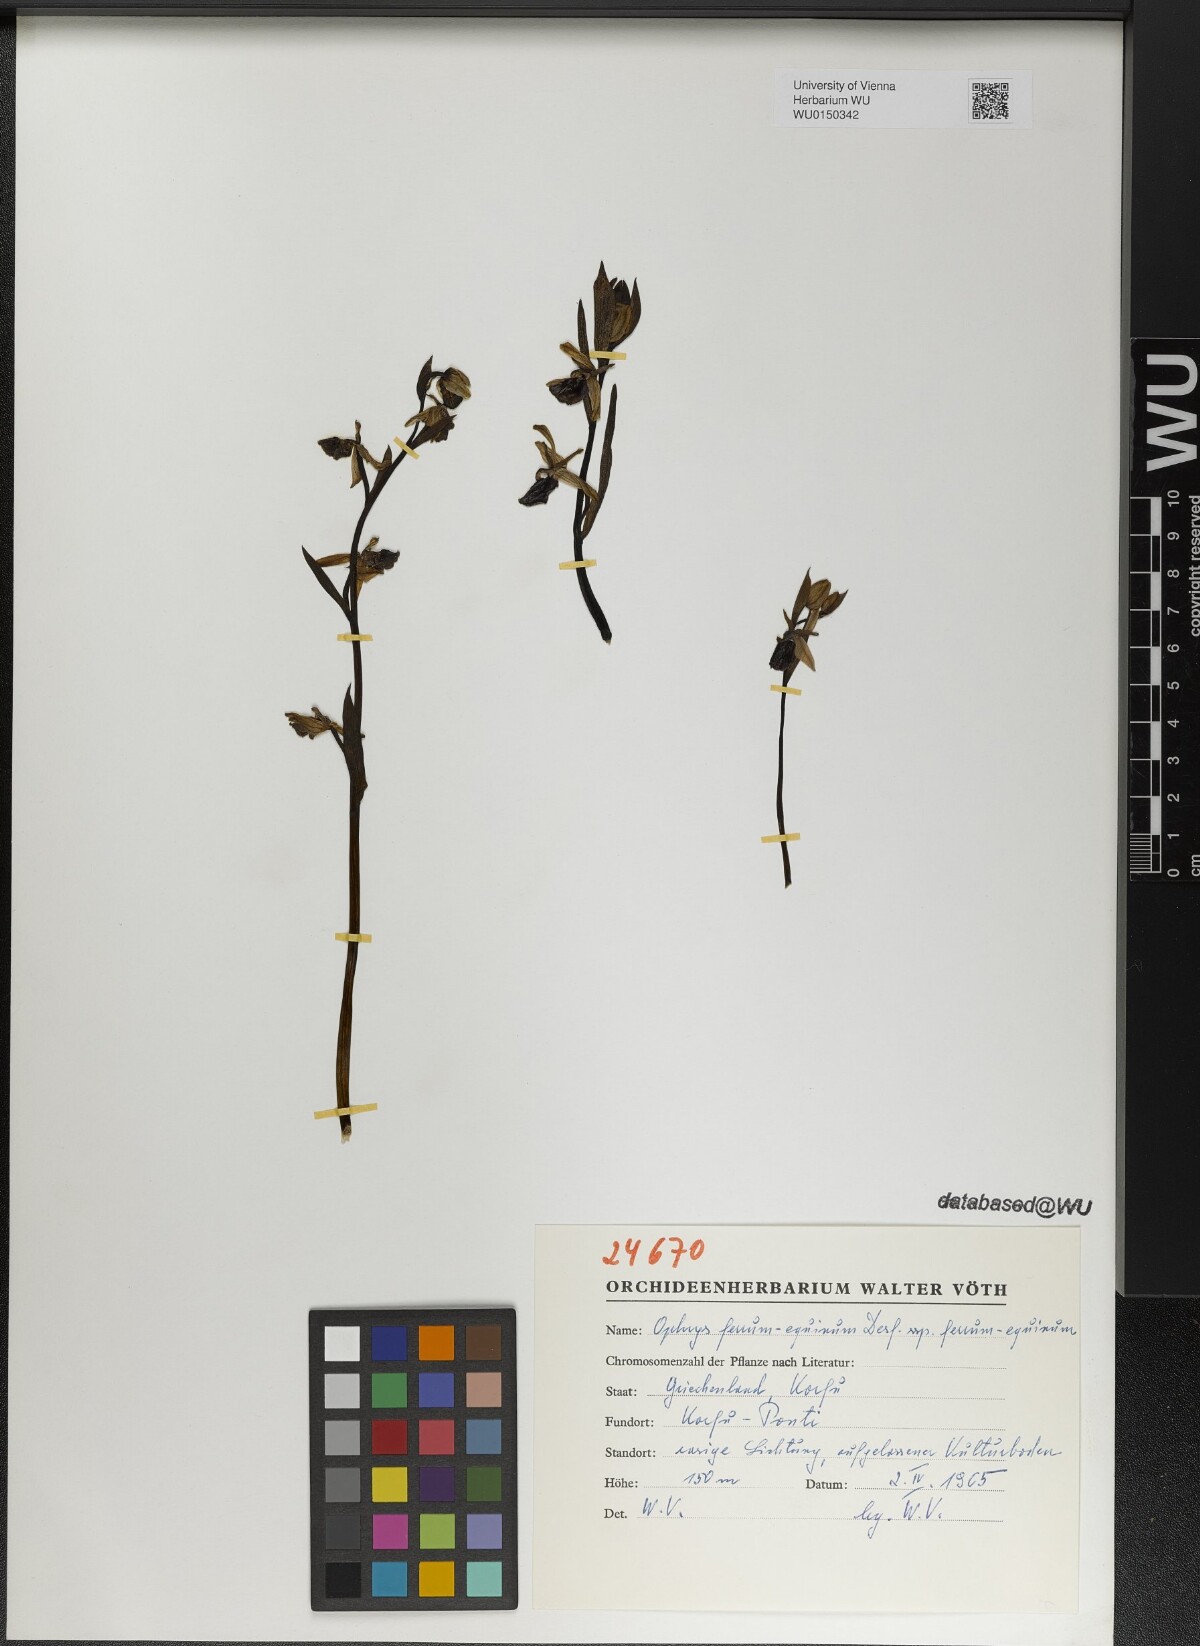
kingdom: Plantae
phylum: Tracheophyta
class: Liliopsida
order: Asparagales
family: Orchidaceae
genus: Ophrys
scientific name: Ophrys ferrum-equinum
